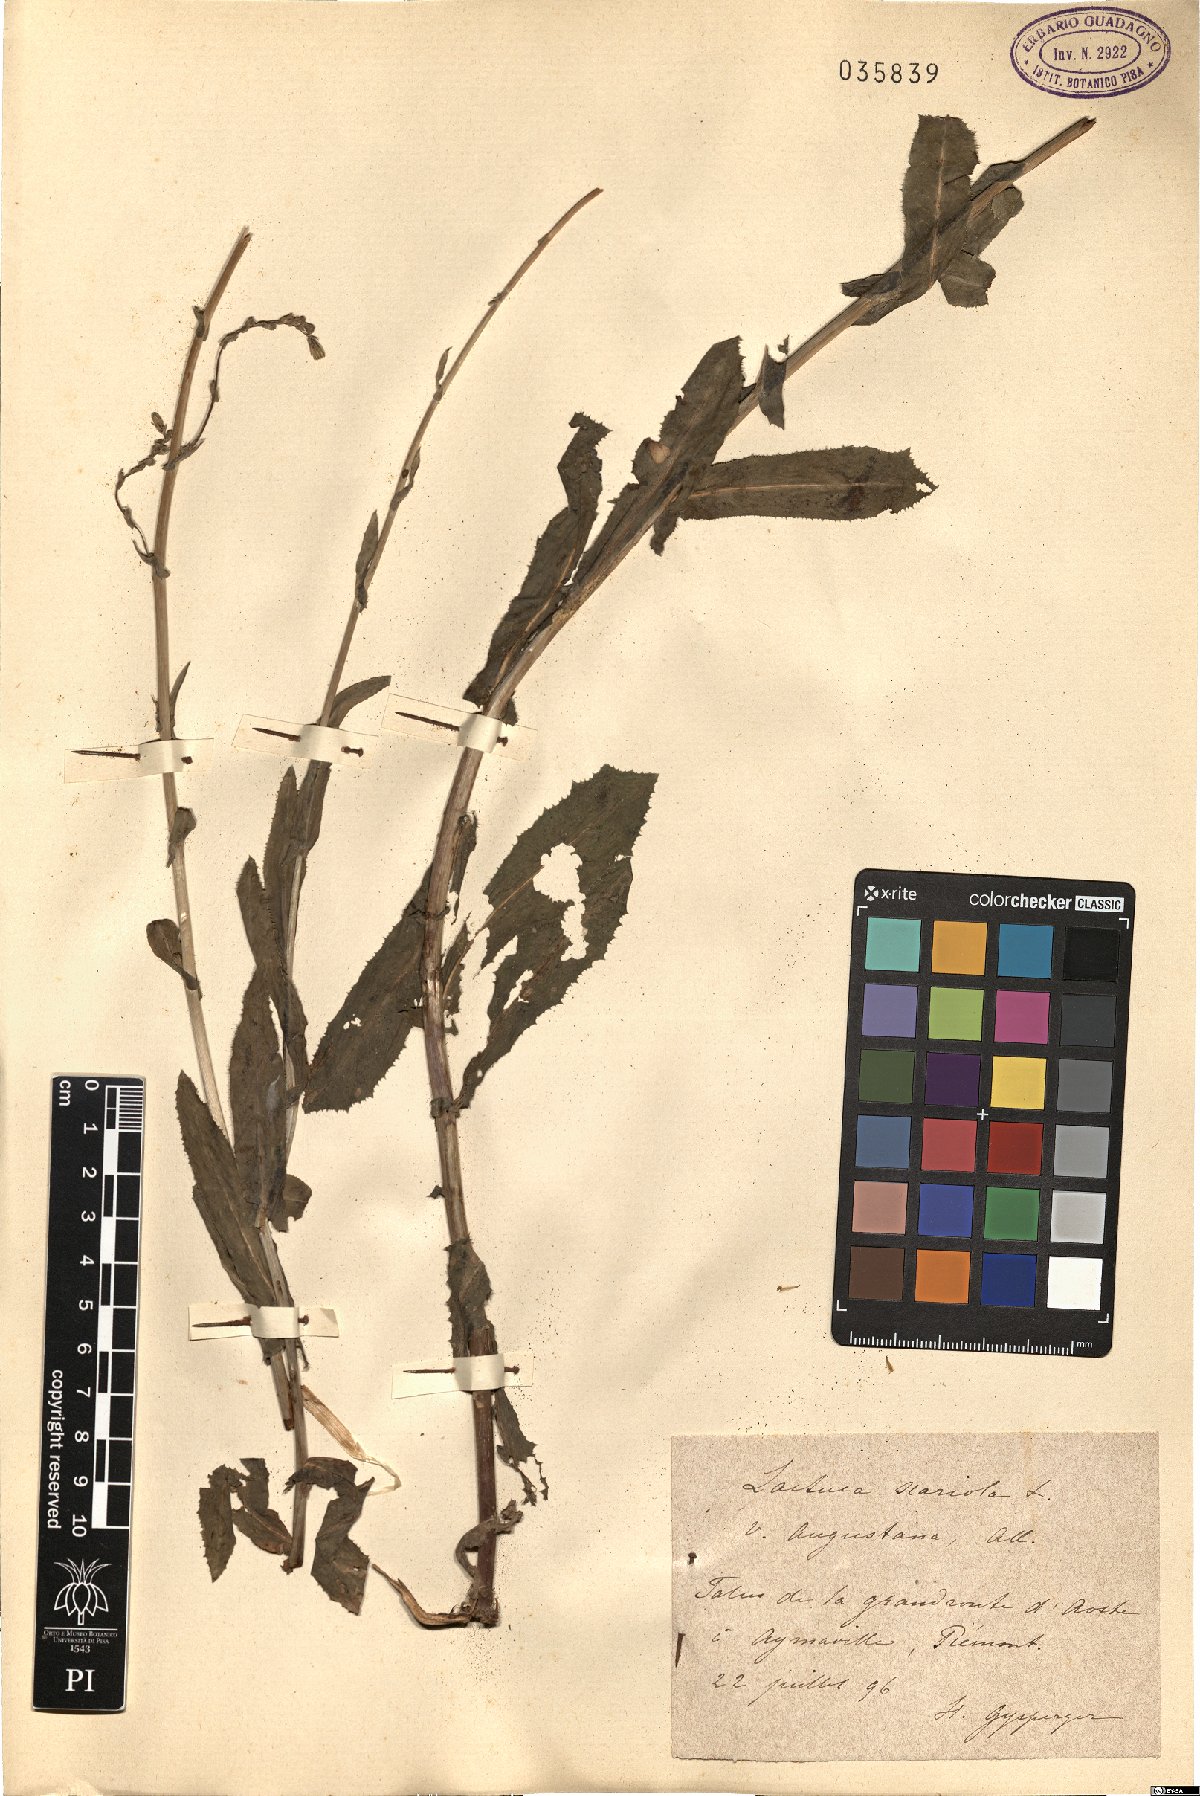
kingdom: Plantae
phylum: Tracheophyta
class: Magnoliopsida
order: Asterales
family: Asteraceae
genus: Lactuca
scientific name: Lactuca serriola
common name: Prickly lettuce
